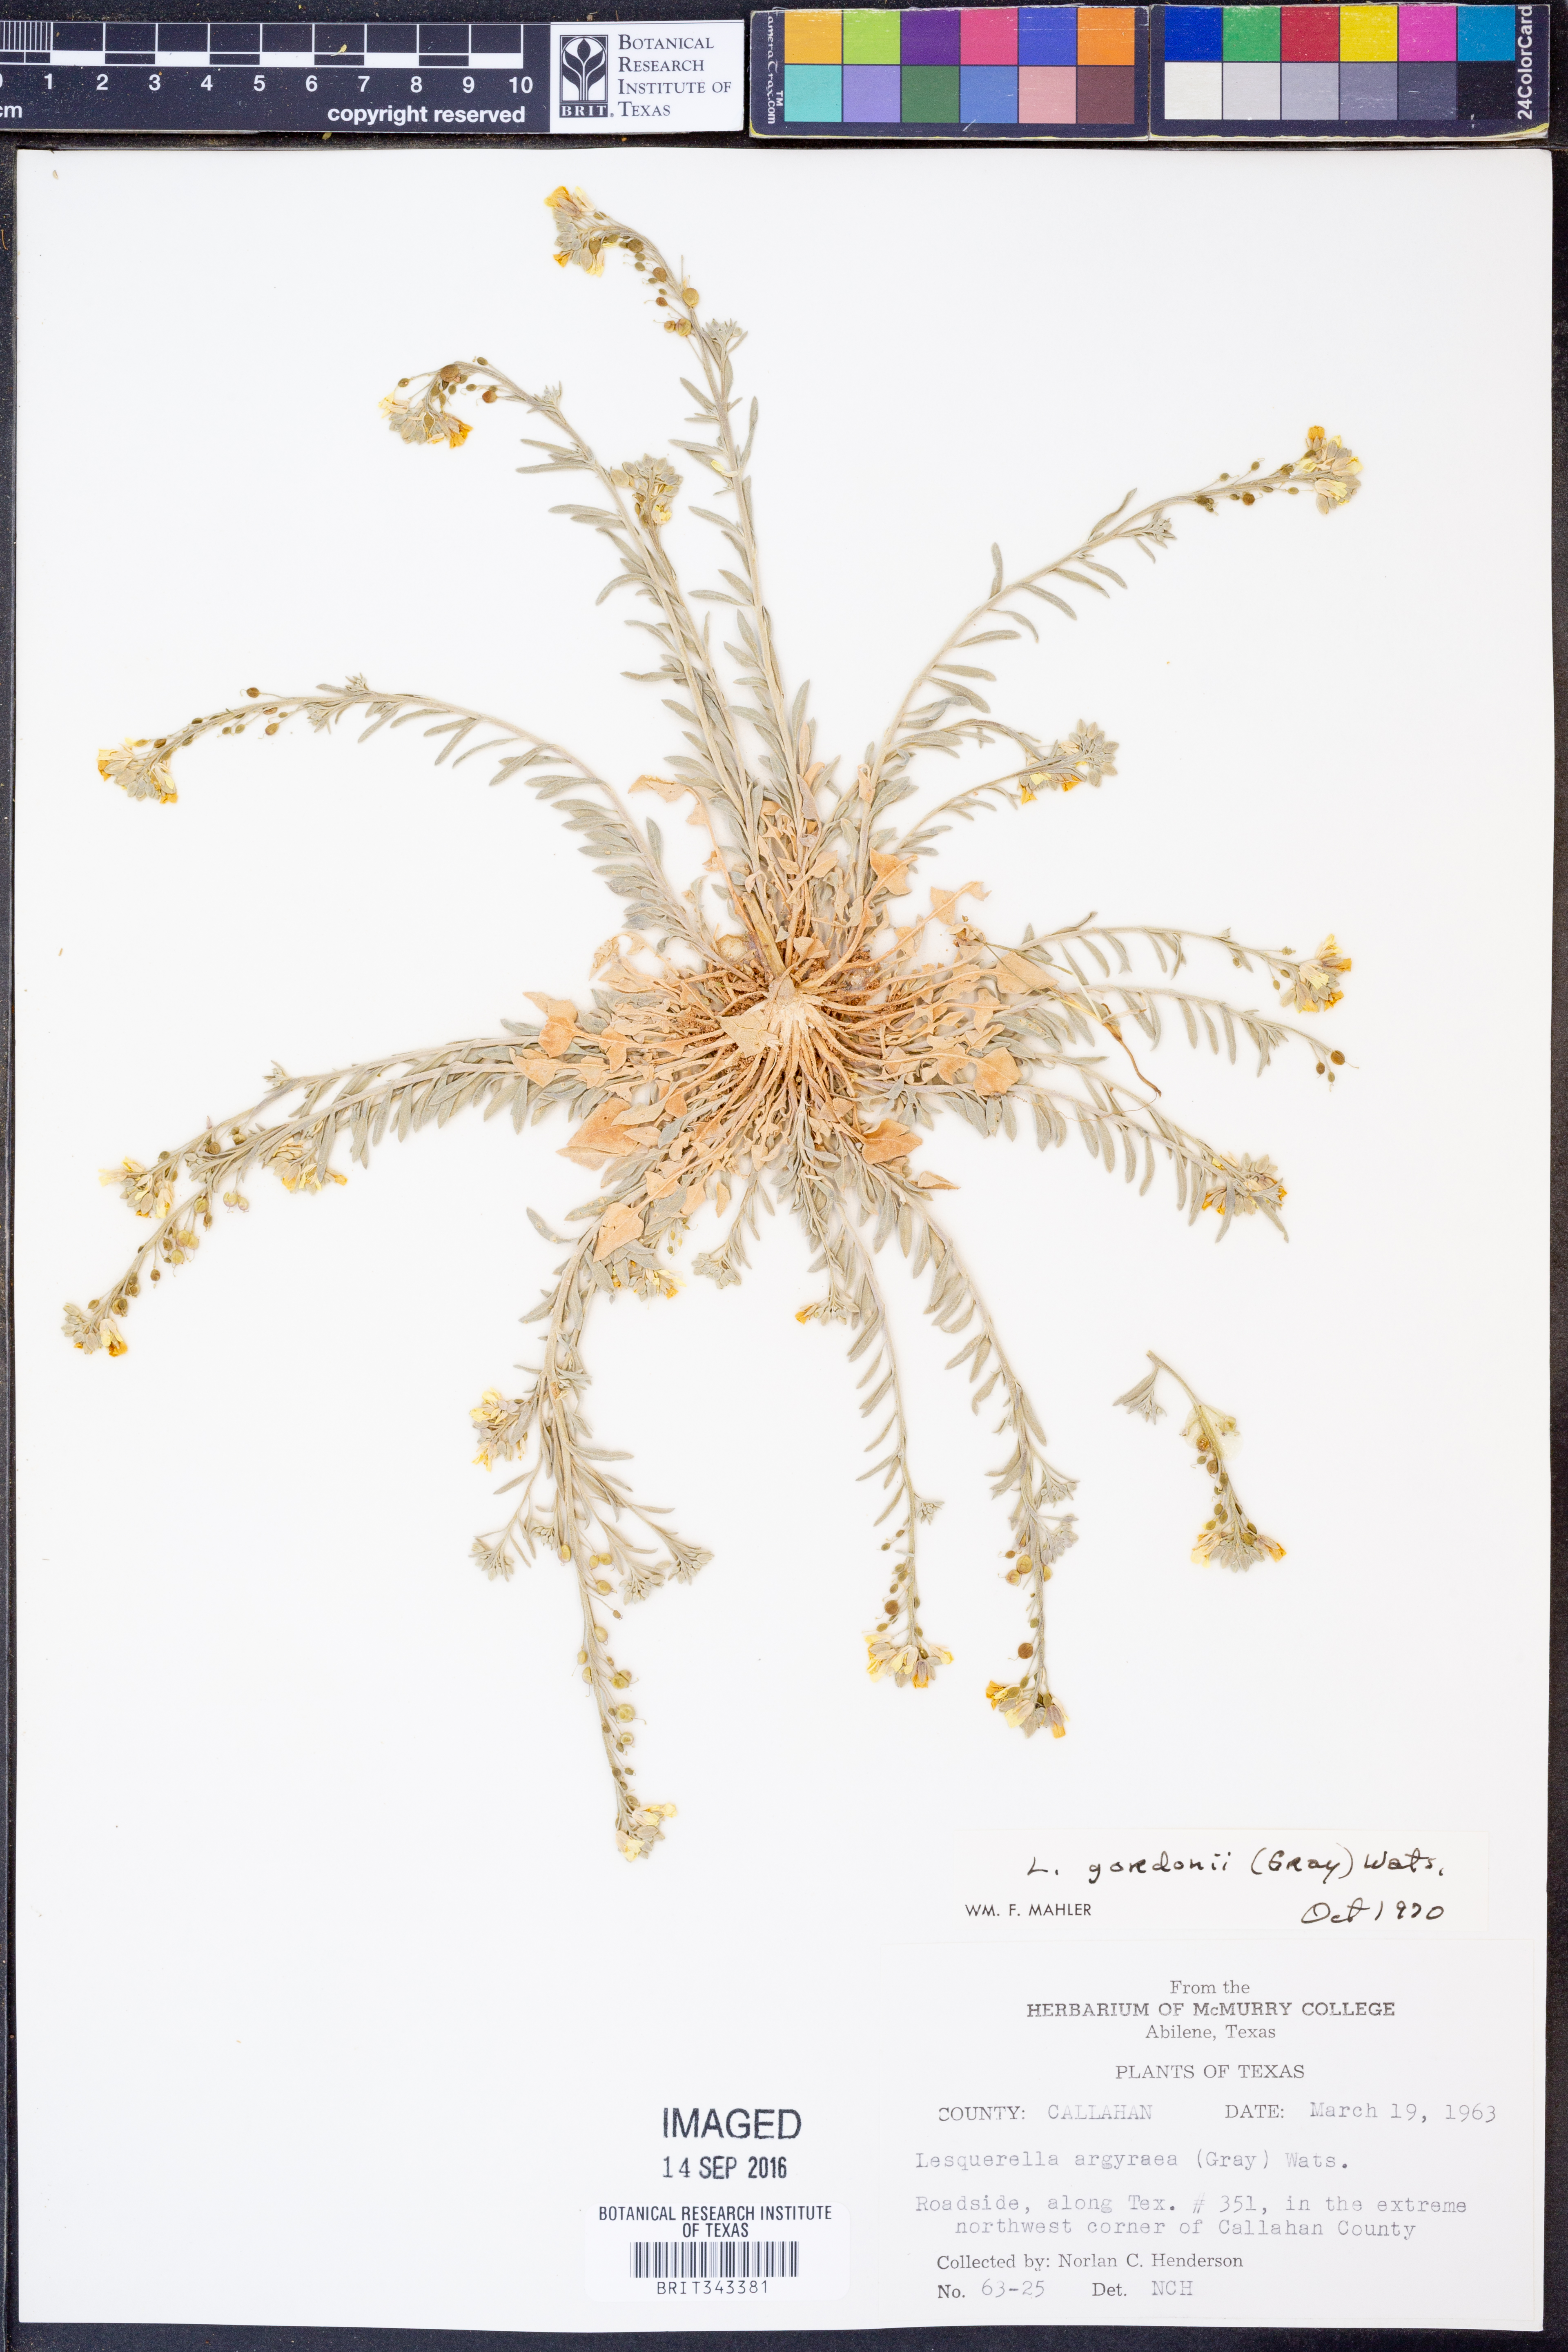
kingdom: Plantae
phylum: Tracheophyta
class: Magnoliopsida
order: Brassicales
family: Brassicaceae
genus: Physaria
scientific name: Physaria gordonii
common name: Gordon's bladderpod
